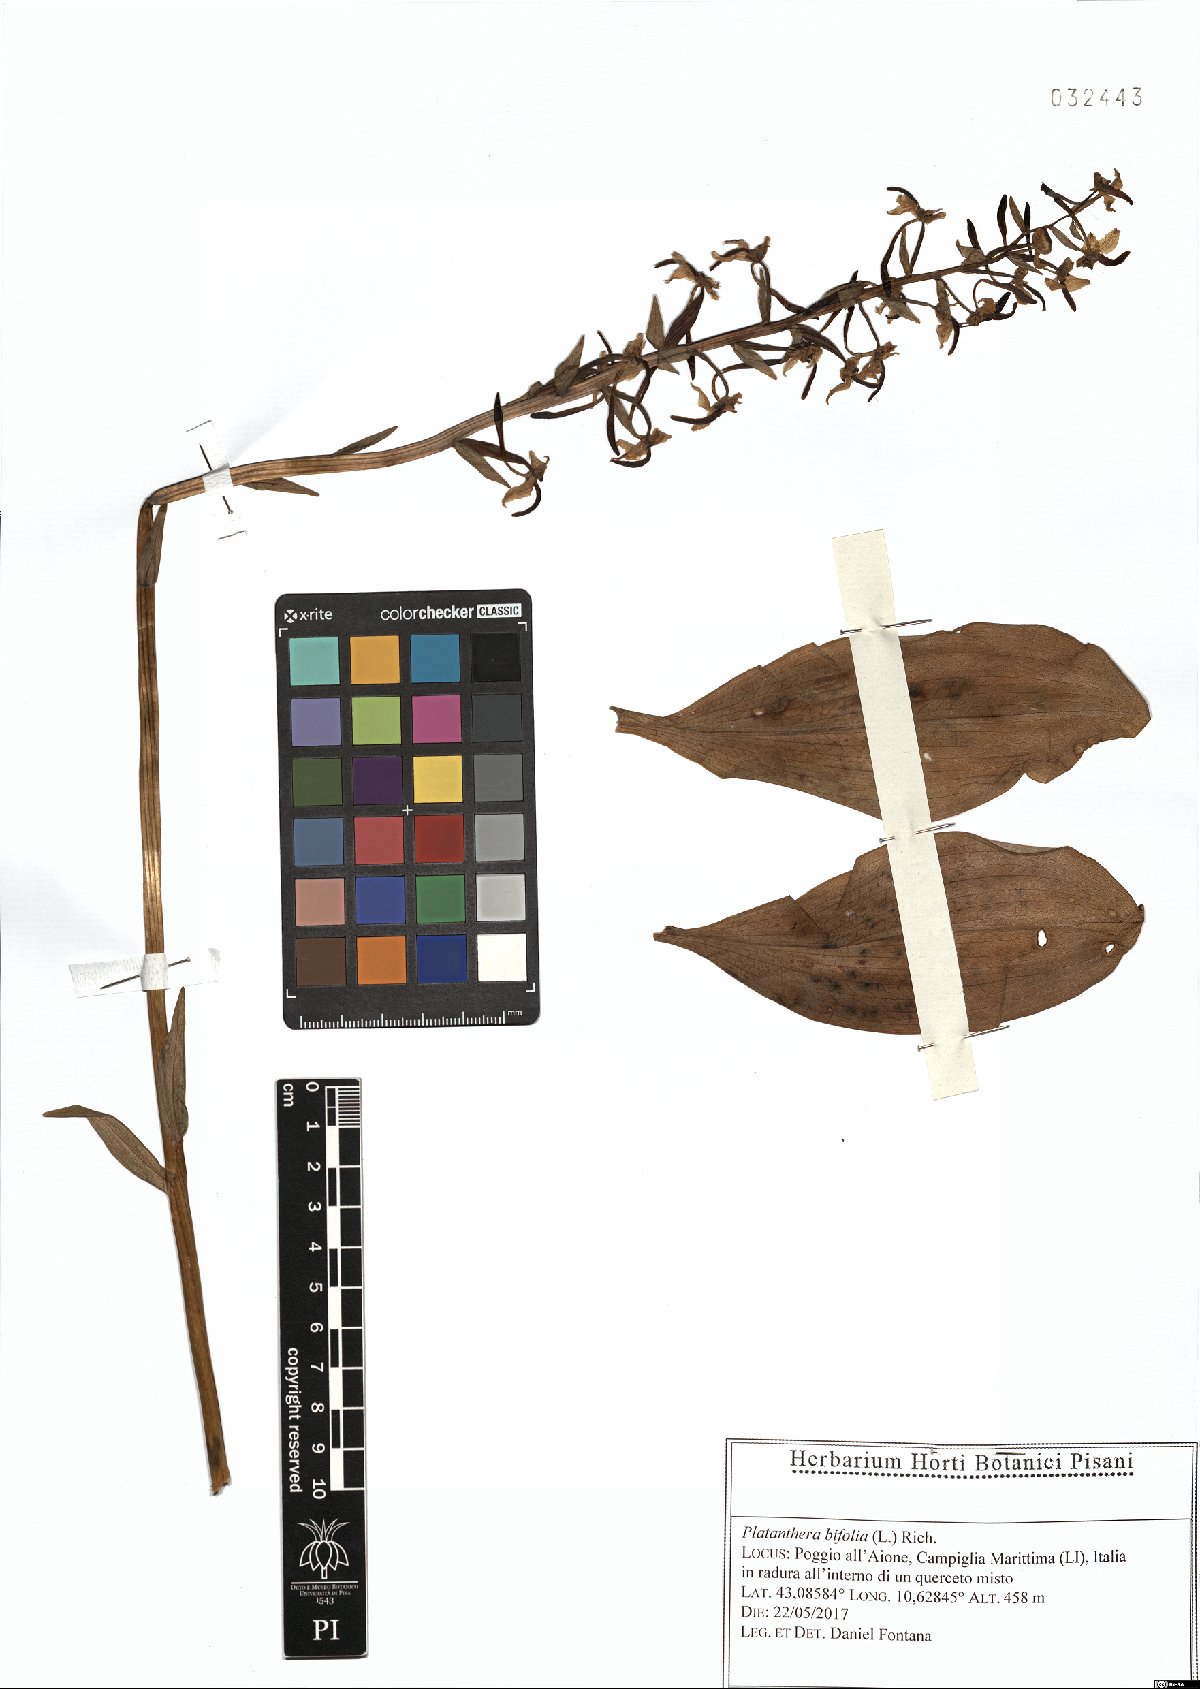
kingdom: Plantae
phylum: Tracheophyta
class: Liliopsida
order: Asparagales
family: Orchidaceae
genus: Platanthera
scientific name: Platanthera bifolia
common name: Lesser butterfly-orchid
